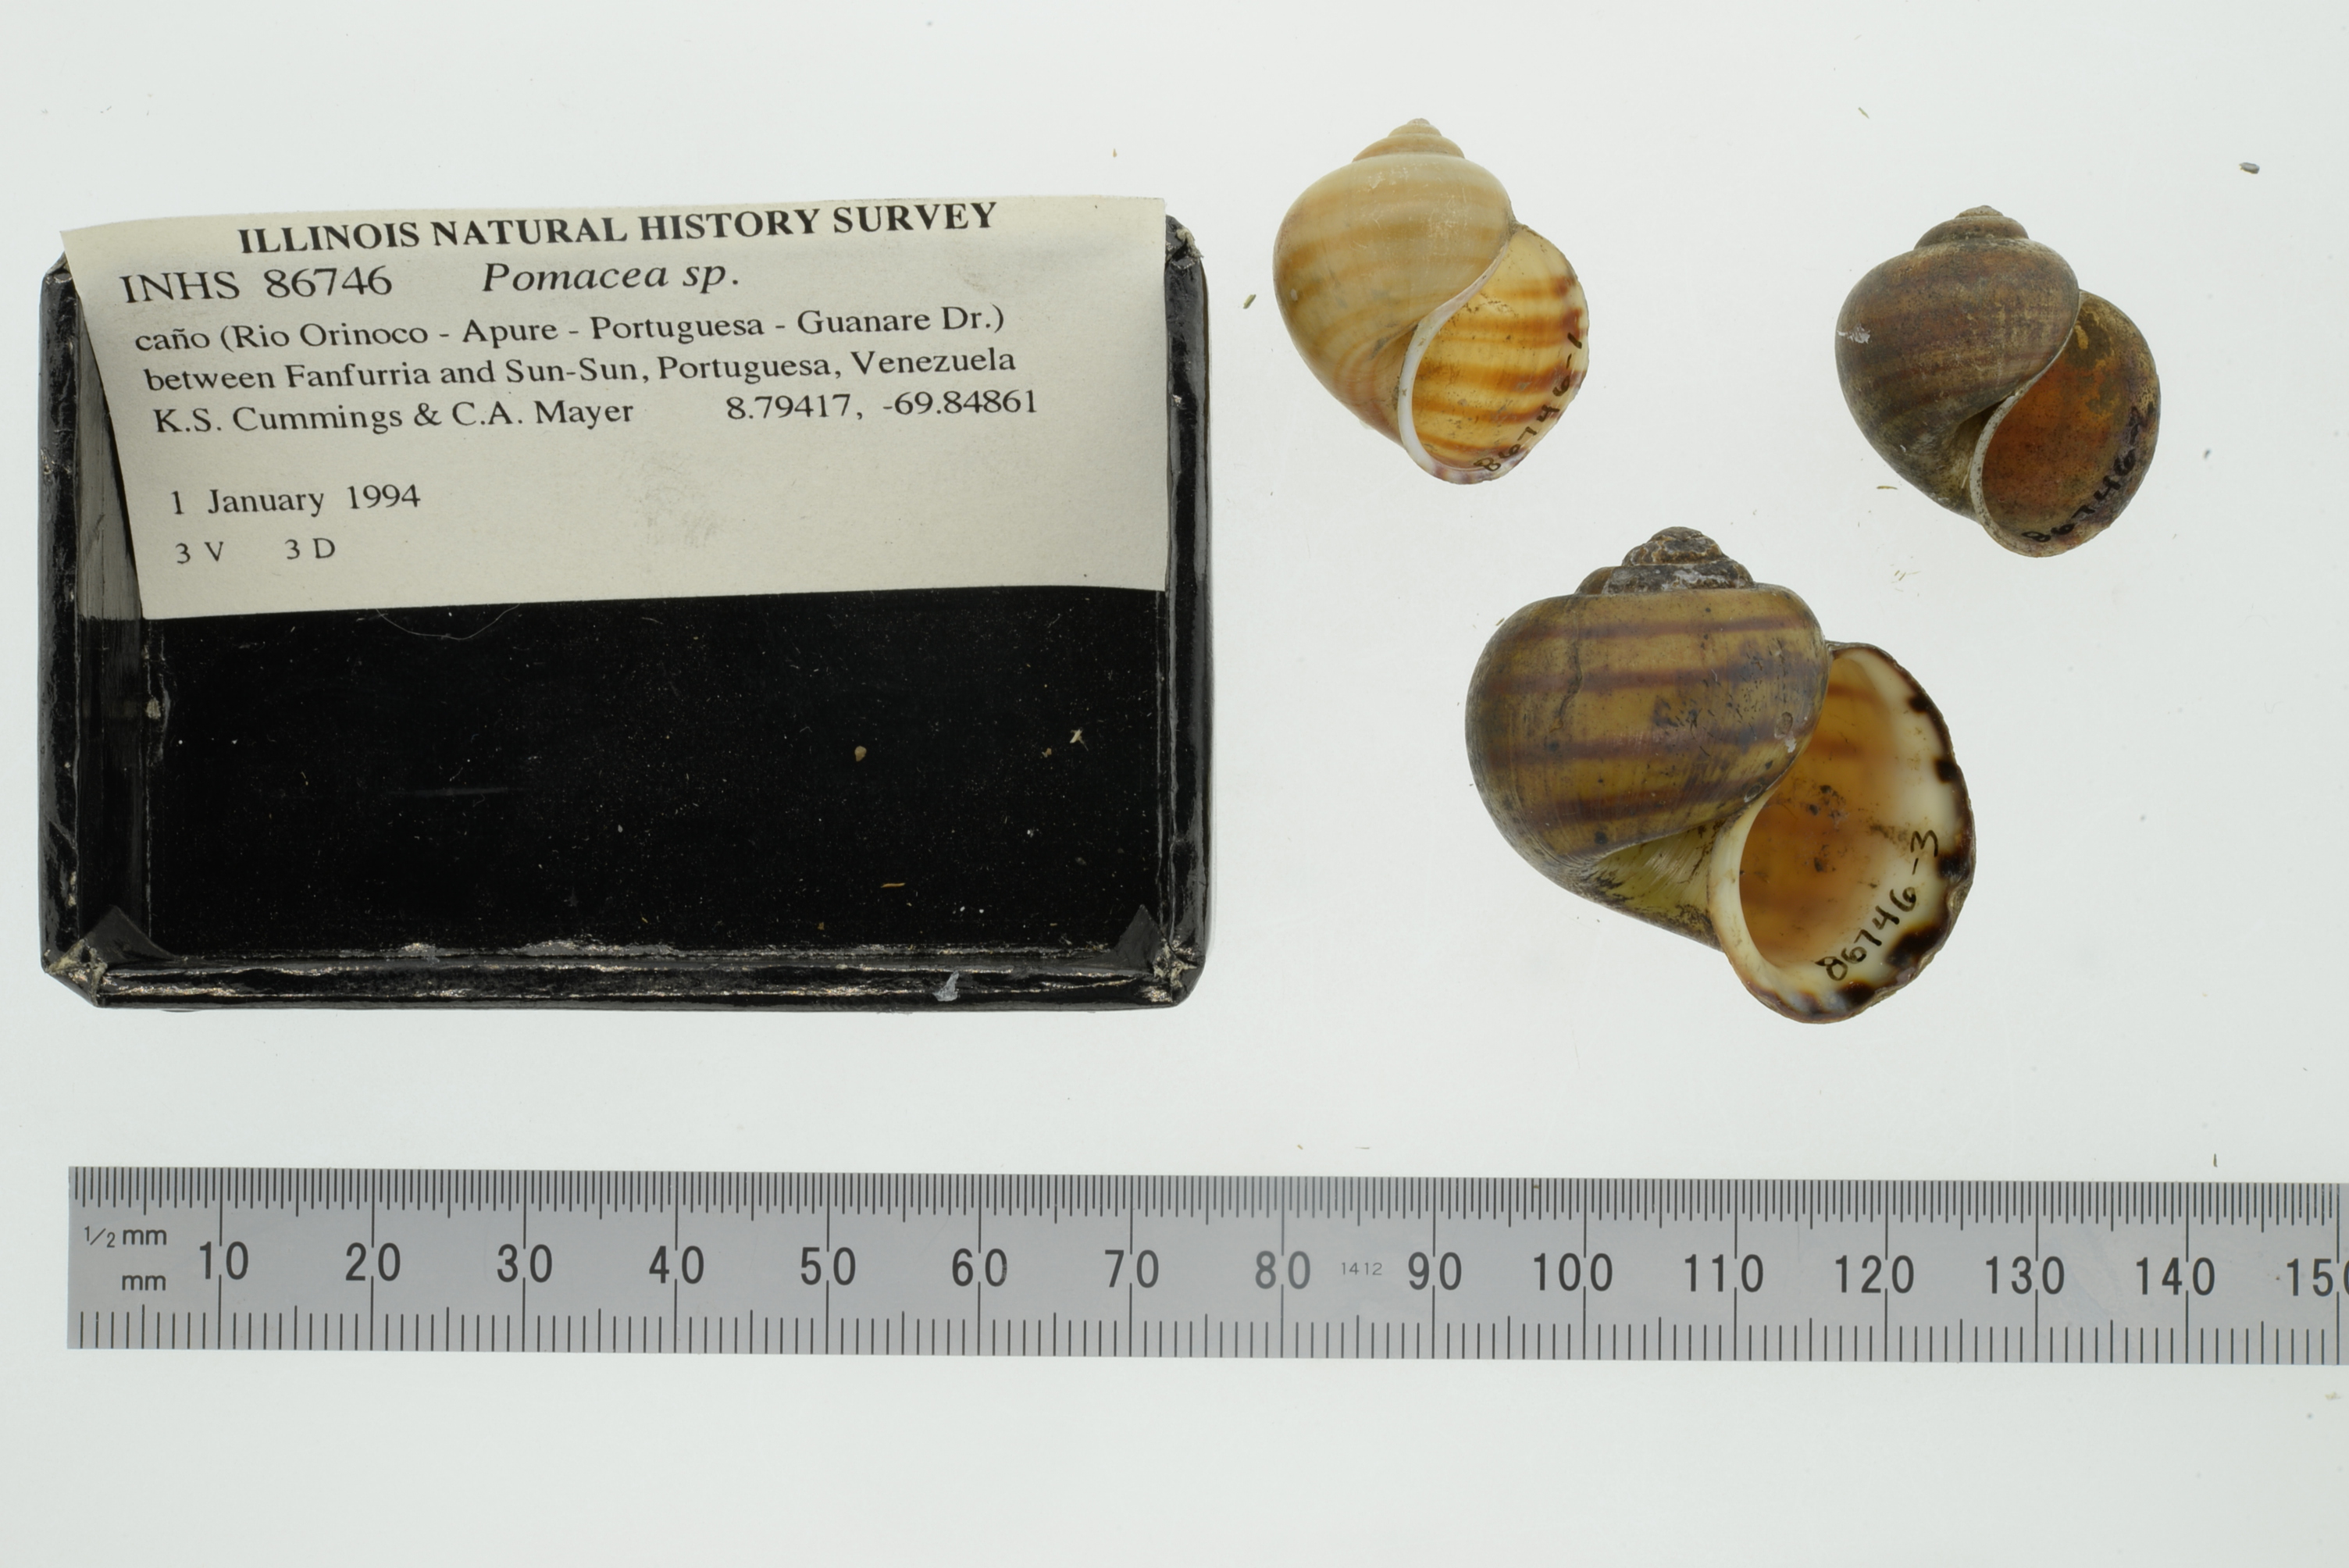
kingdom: Animalia
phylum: Mollusca
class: Gastropoda
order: Architaenioglossa
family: Ampullariidae
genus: Pomacea
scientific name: Pomacea
